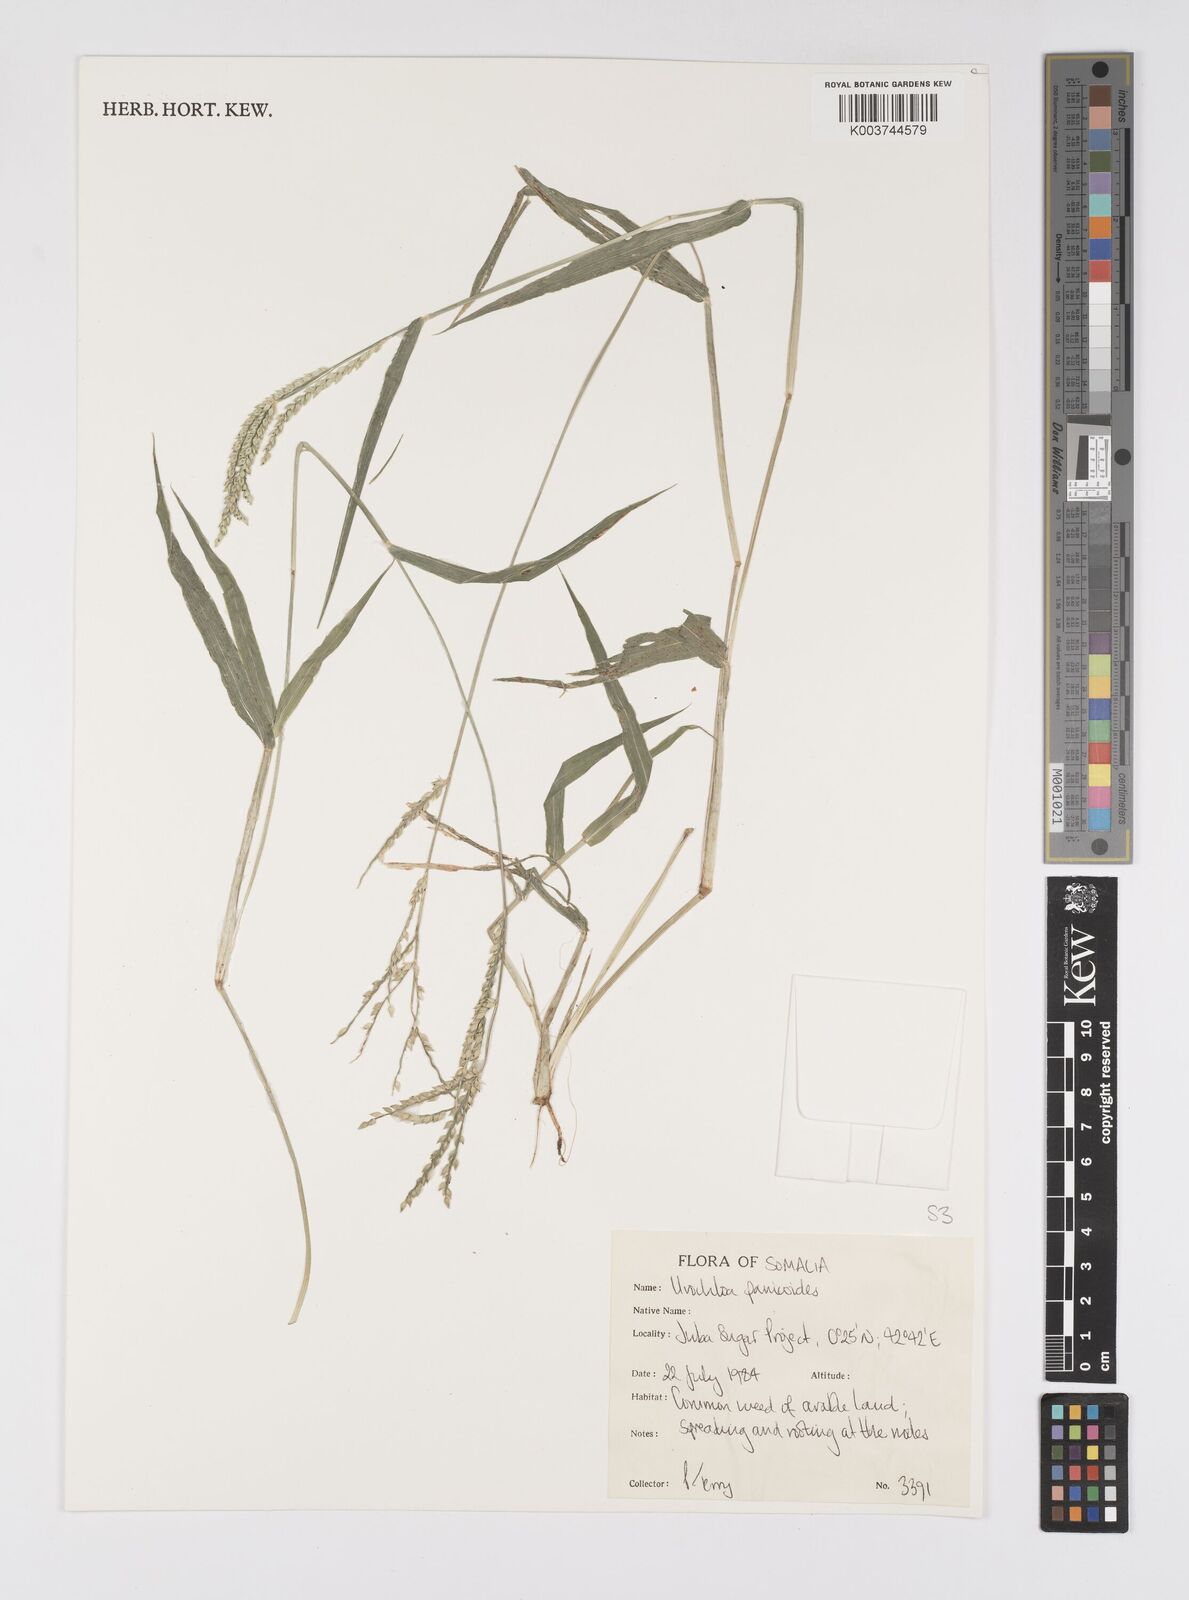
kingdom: Plantae
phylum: Tracheophyta
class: Liliopsida
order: Poales
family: Poaceae
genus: Urochloa
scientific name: Urochloa panicoides
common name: Sharp-flowered signal-grass
